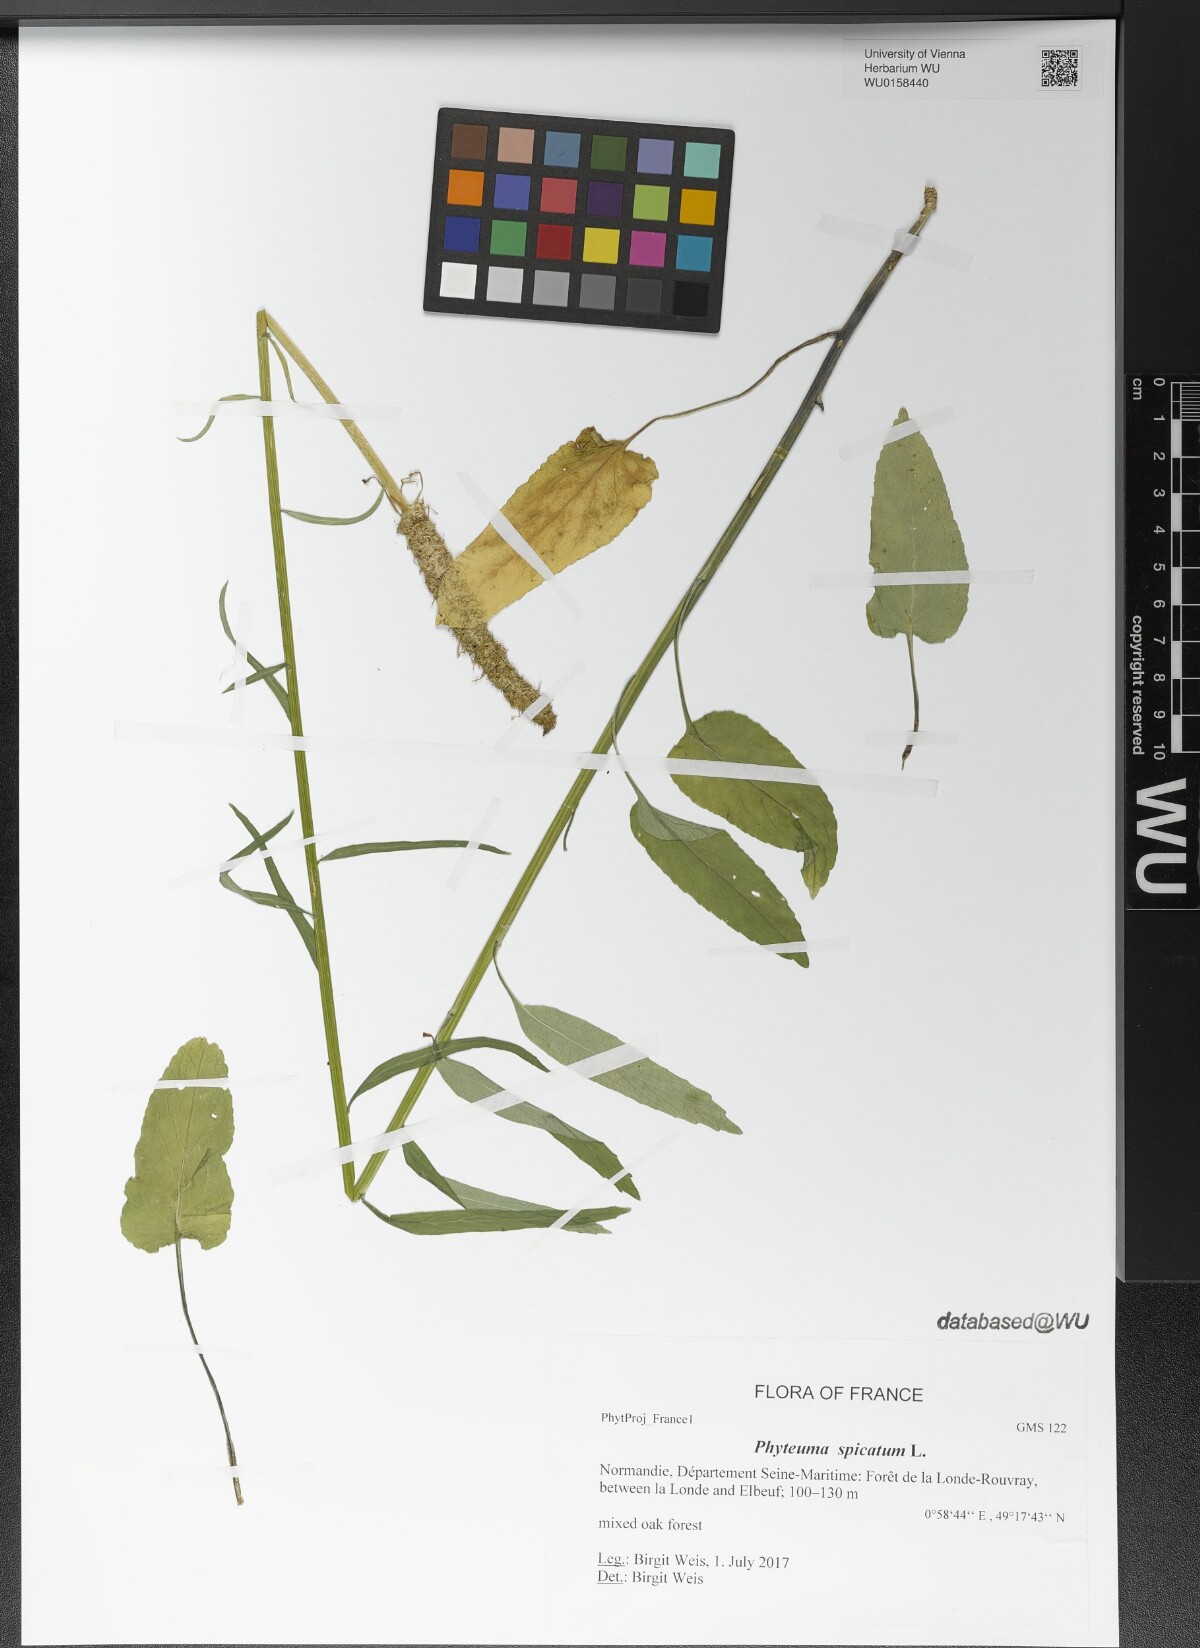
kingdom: Plantae
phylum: Tracheophyta
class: Magnoliopsida
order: Asterales
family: Campanulaceae
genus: Phyteuma
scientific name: Phyteuma spicatum
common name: Spiked rampion
